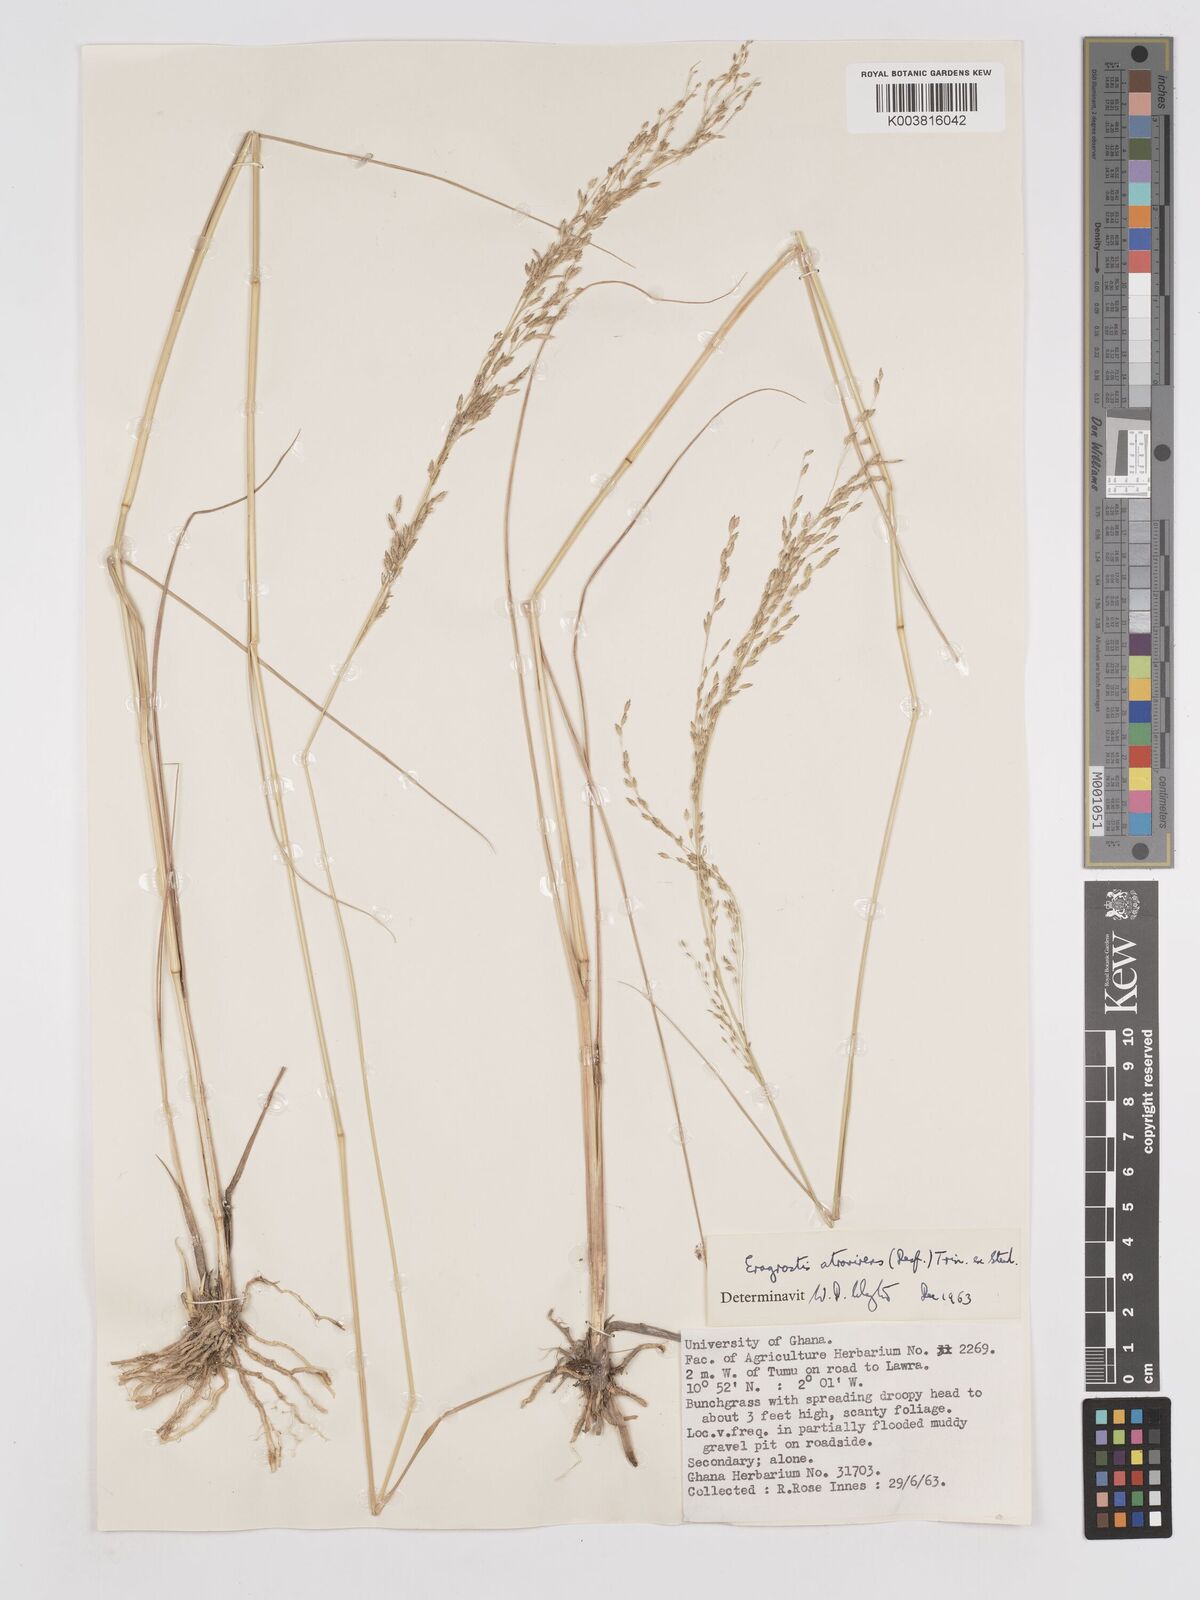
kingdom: Plantae
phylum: Tracheophyta
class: Liliopsida
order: Poales
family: Poaceae
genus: Eragrostis
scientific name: Eragrostis atrovirens
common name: Thalia lovegrass
